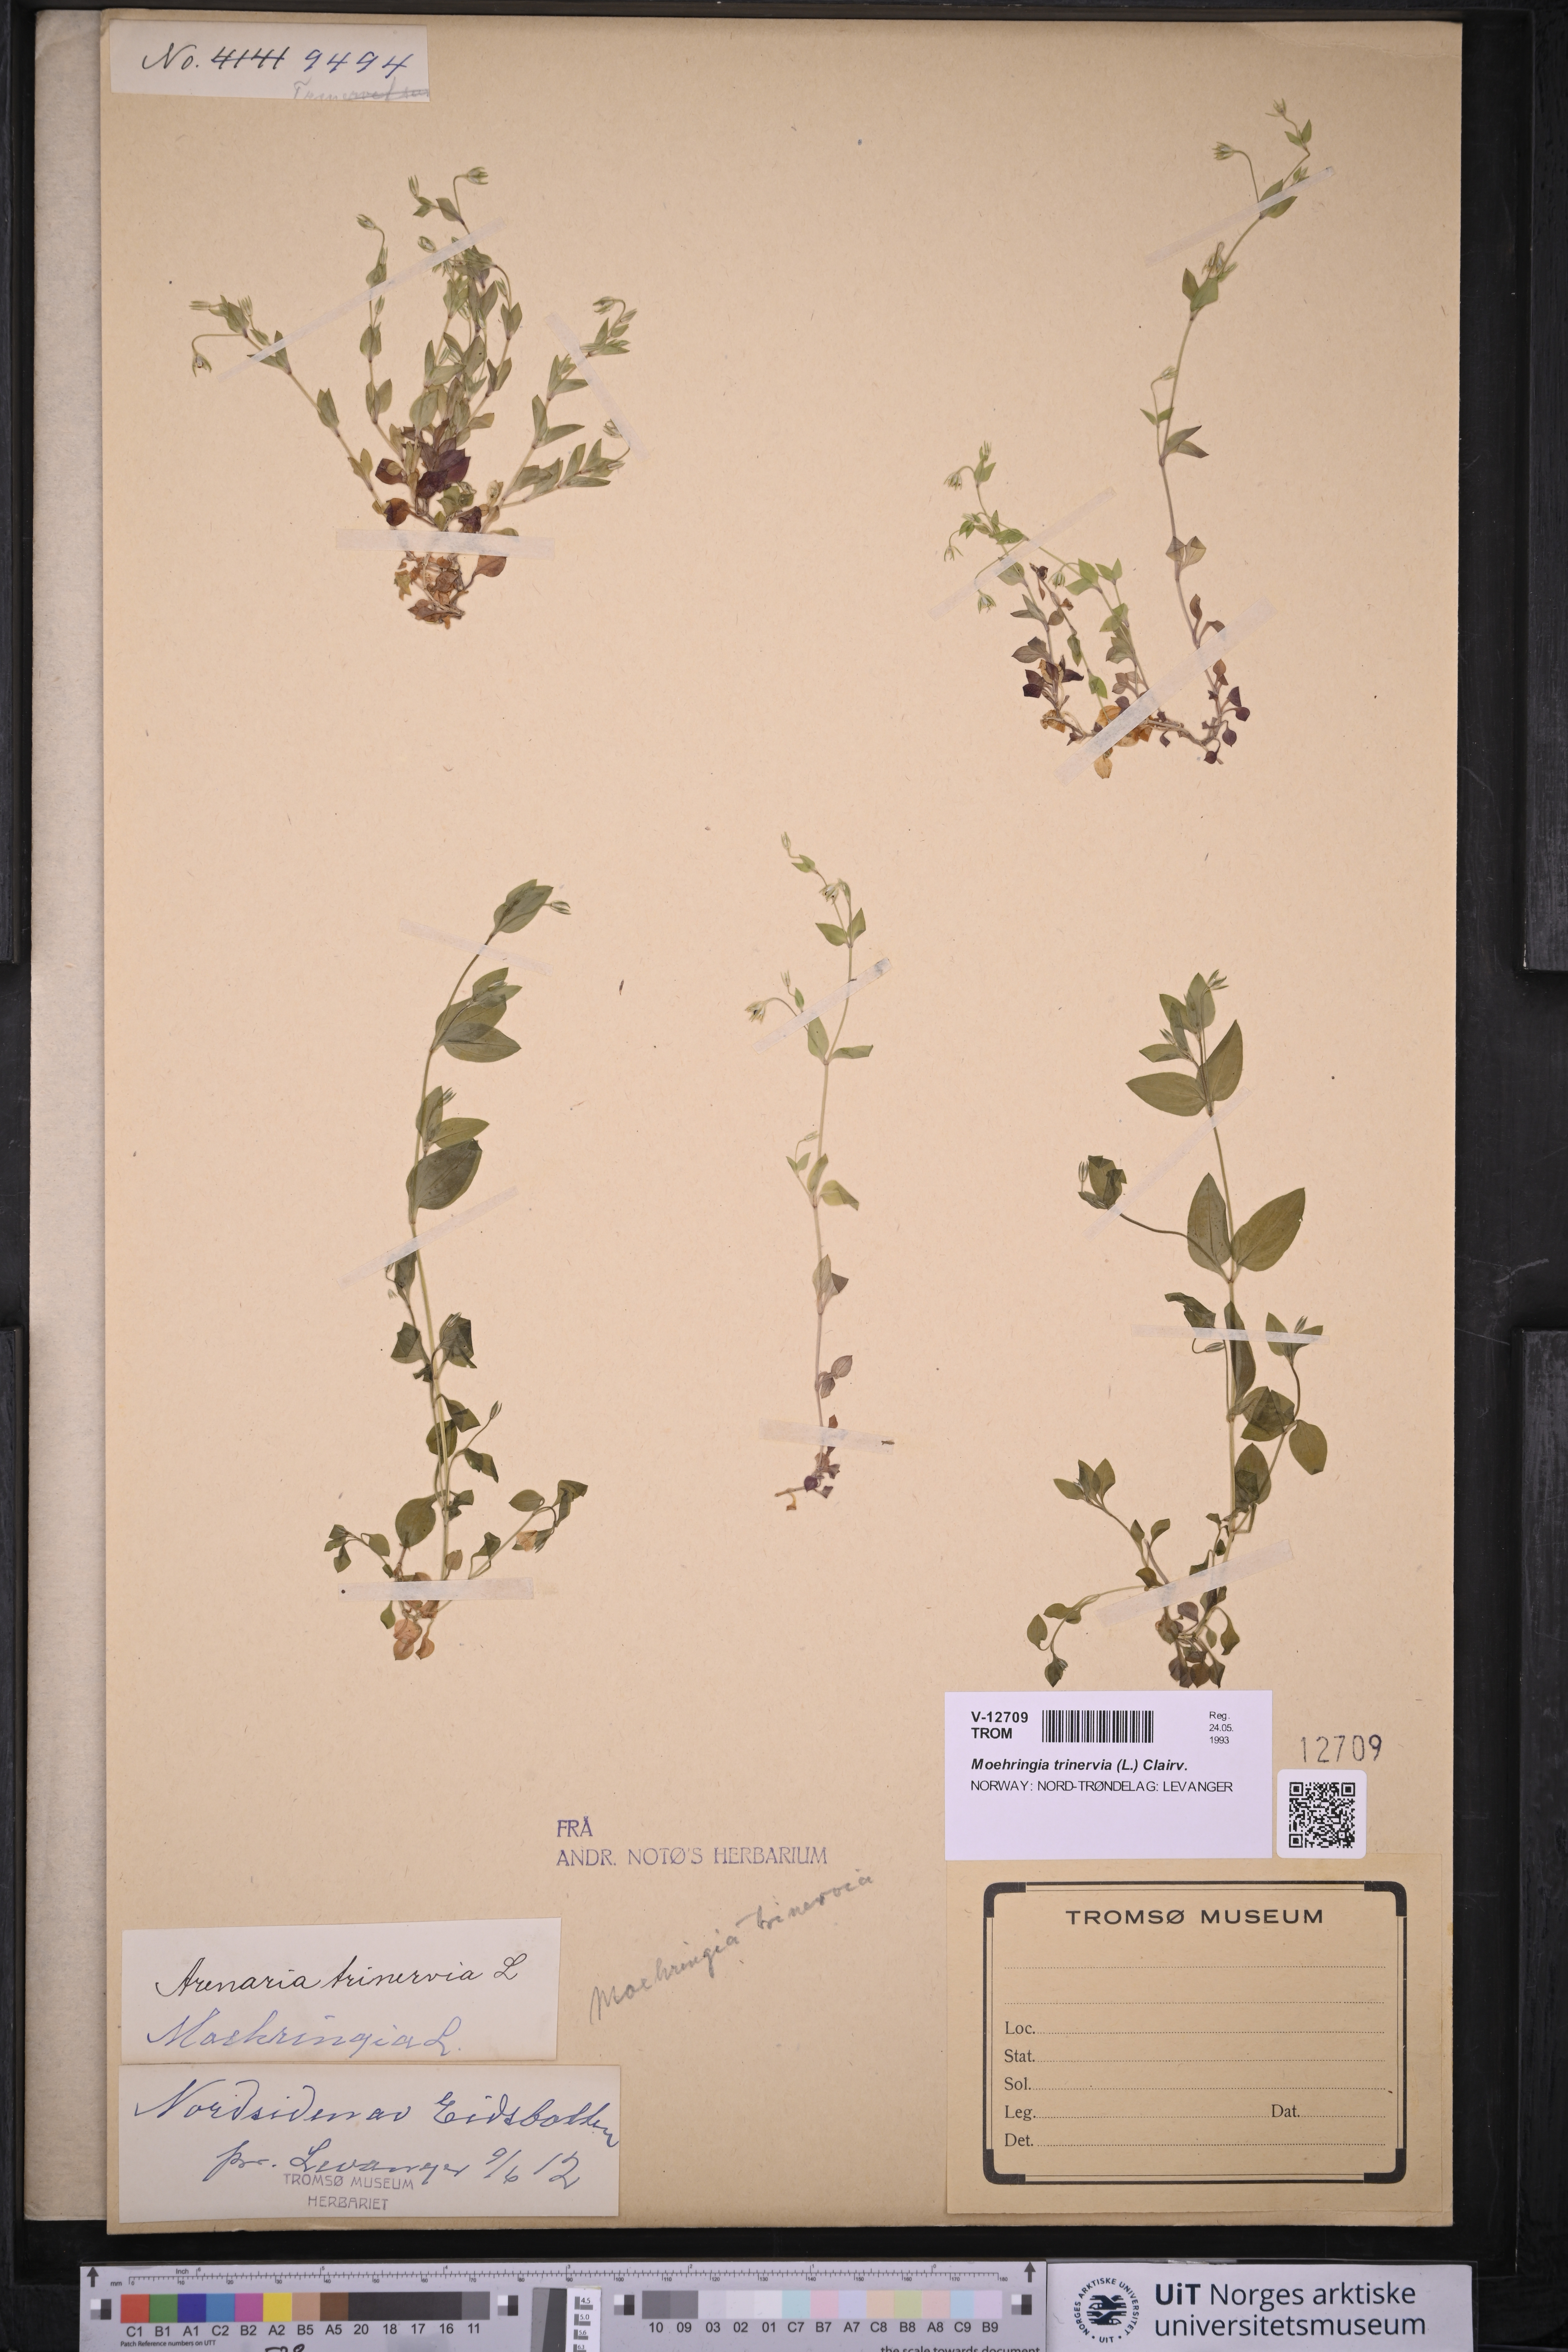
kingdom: Plantae
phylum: Tracheophyta
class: Magnoliopsida
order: Caryophyllales
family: Caryophyllaceae
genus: Moehringia
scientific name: Moehringia trinervia
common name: Three-nerved sandwort
